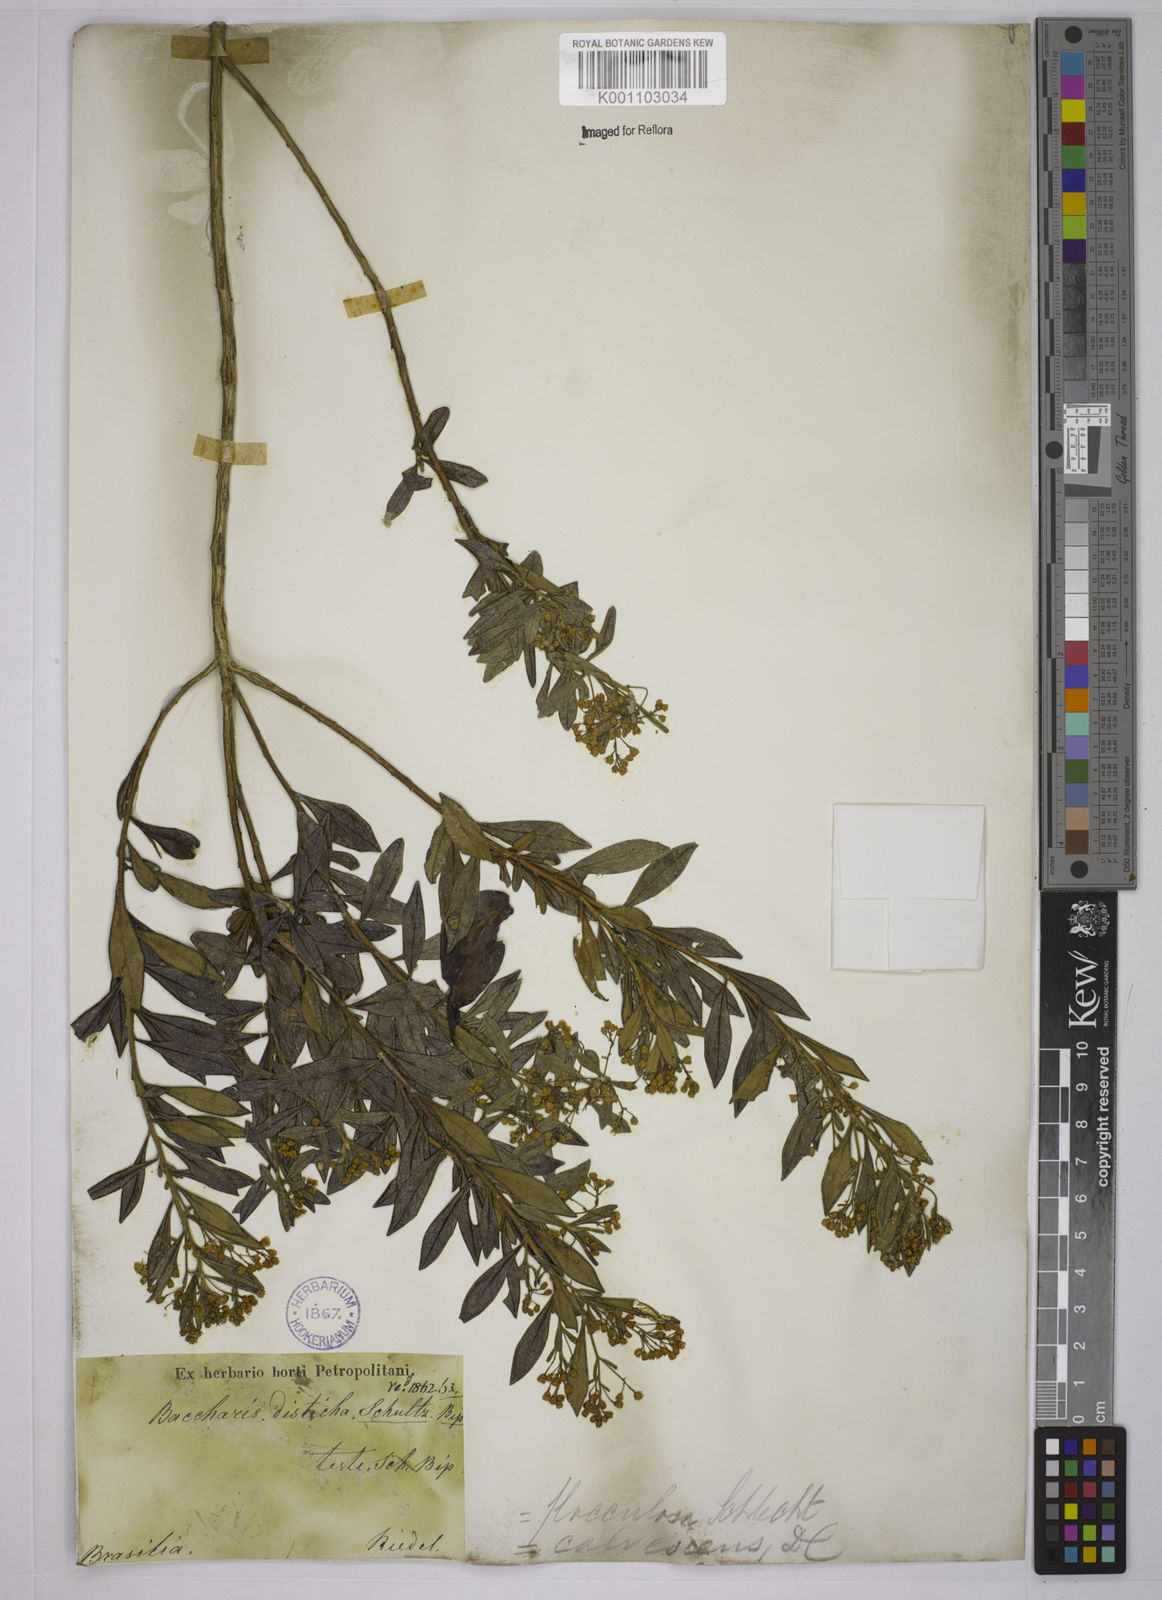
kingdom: Plantae
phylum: Tracheophyta
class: Magnoliopsida
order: Asterales
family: Asteraceae
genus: Baccharis
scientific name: Baccharis lychnophora
